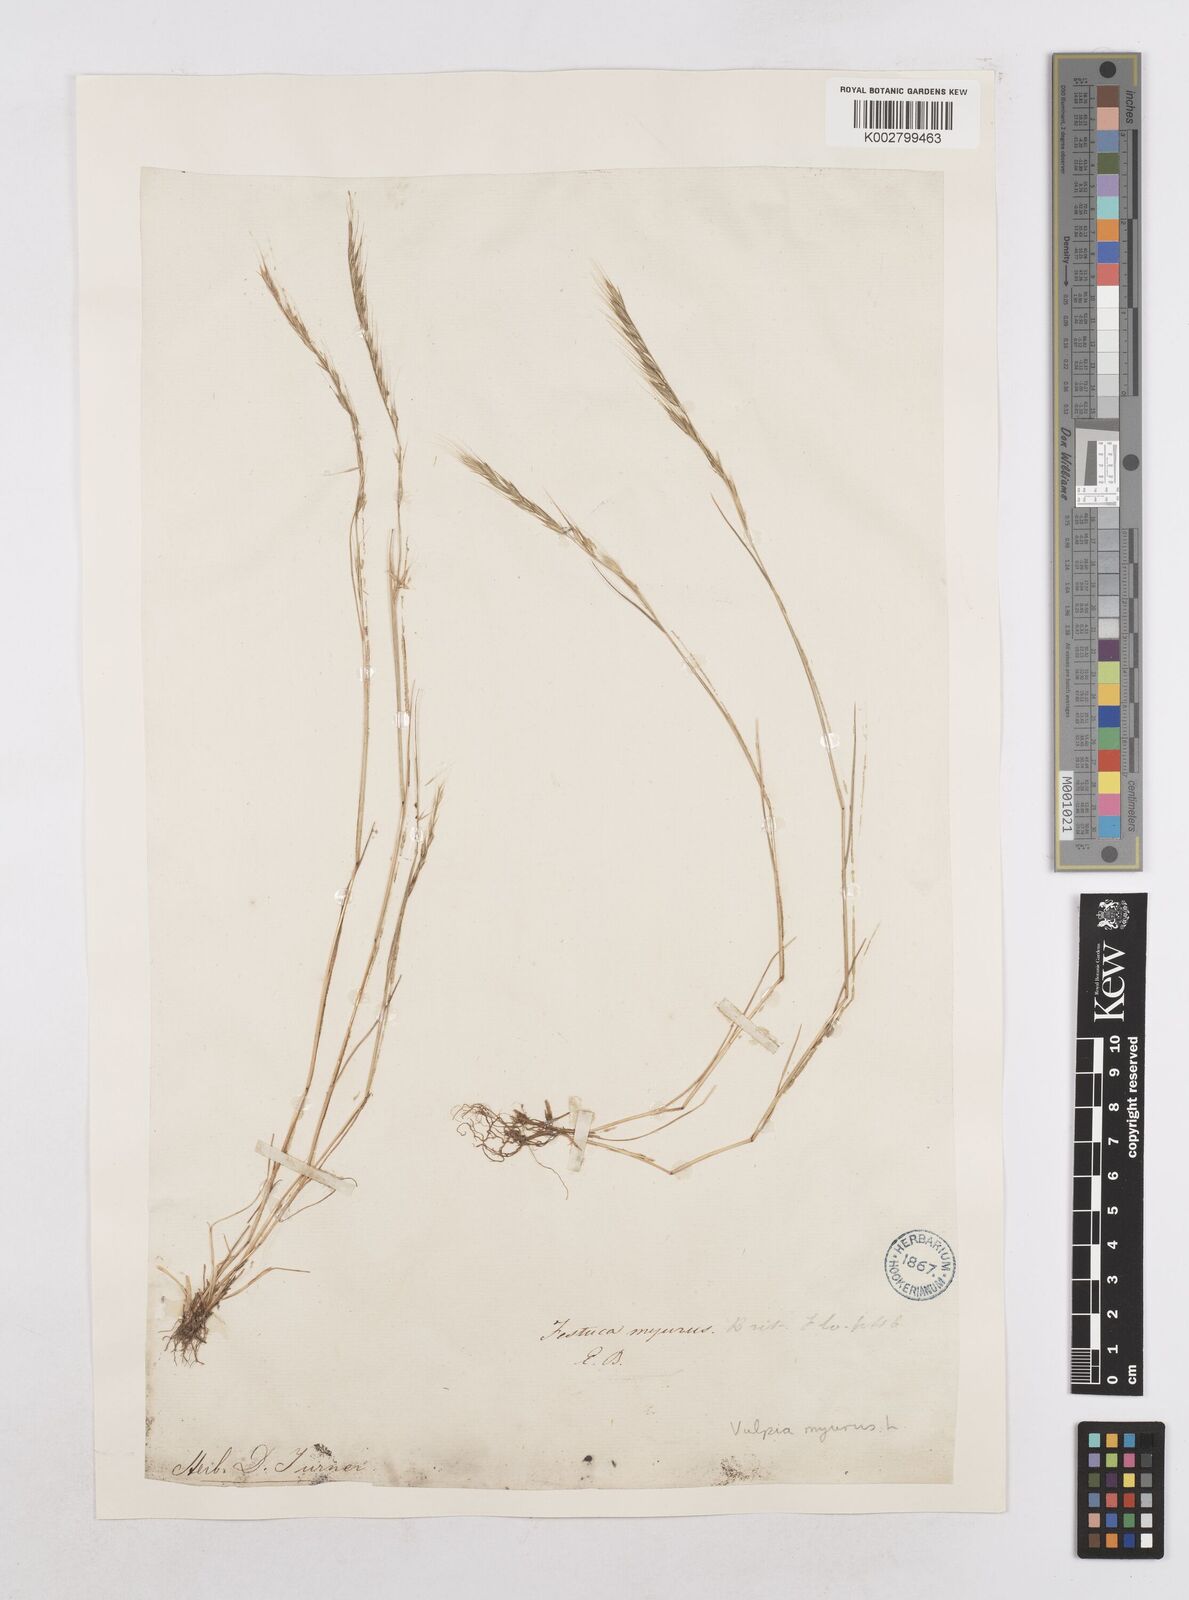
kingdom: Plantae
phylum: Tracheophyta
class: Liliopsida
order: Poales
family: Poaceae
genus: Festuca
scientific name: Festuca myuros
